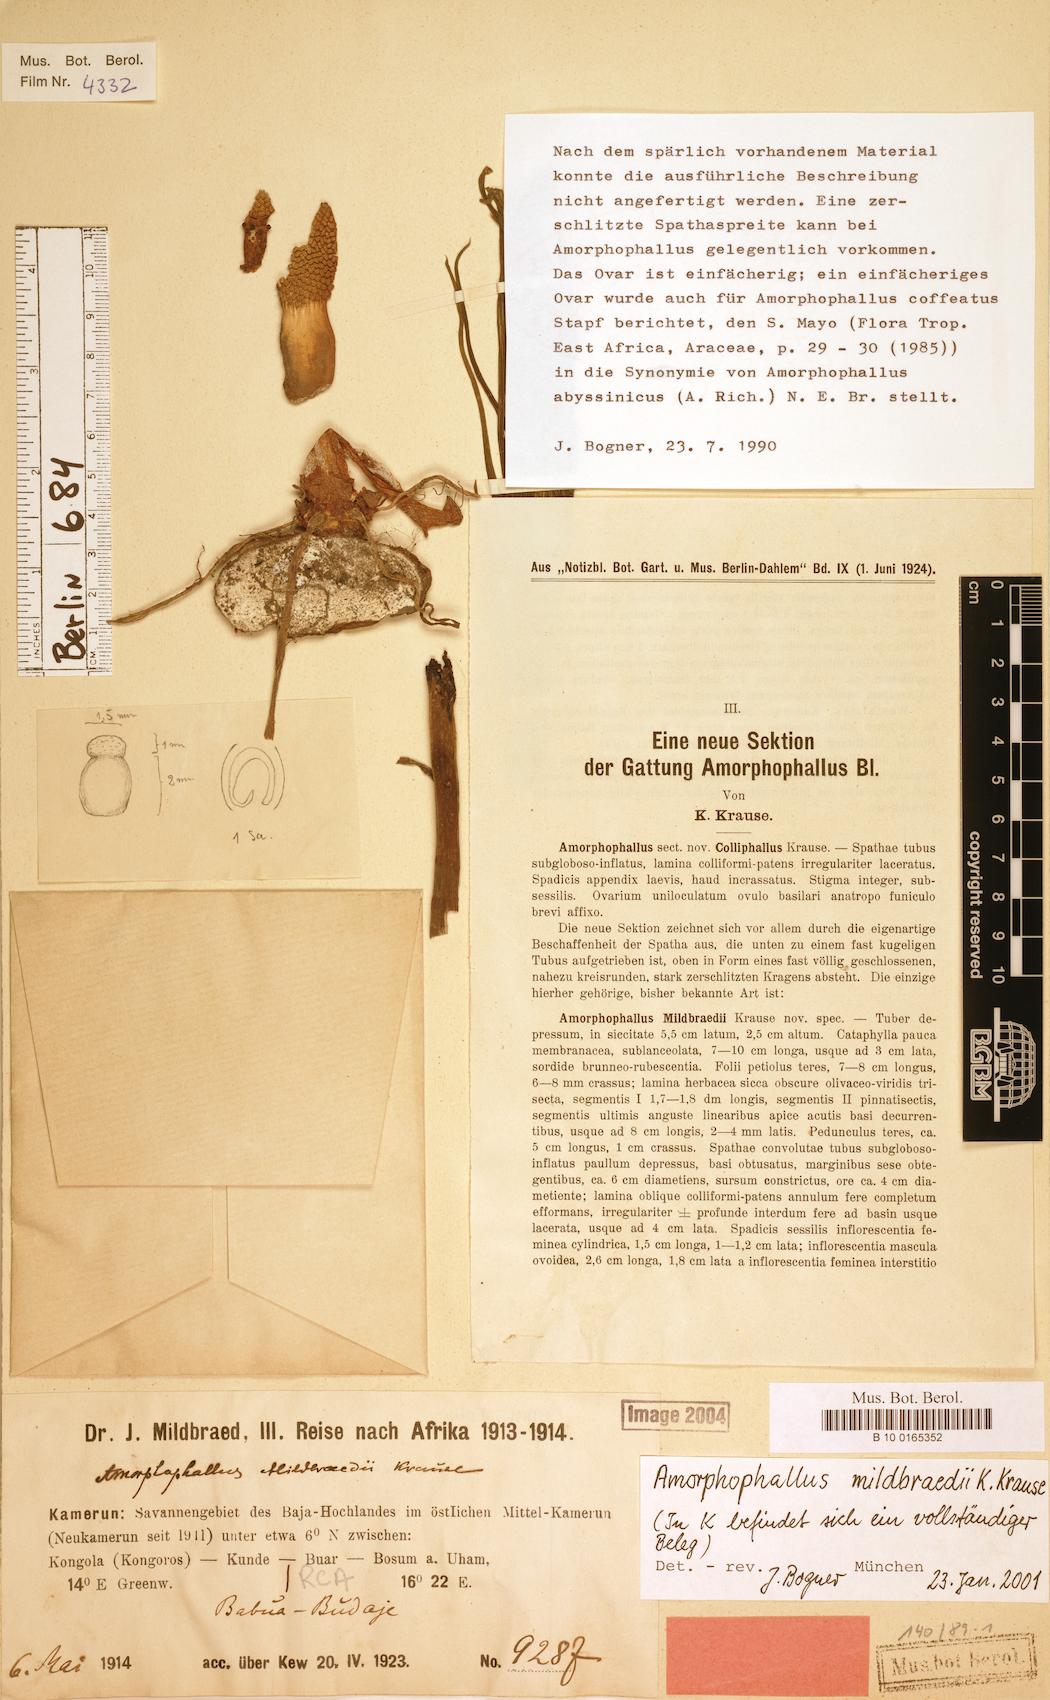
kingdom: Plantae
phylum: Tracheophyta
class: Liliopsida
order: Alismatales
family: Araceae
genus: Amorphophallus
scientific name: Amorphophallus mildbraedii
